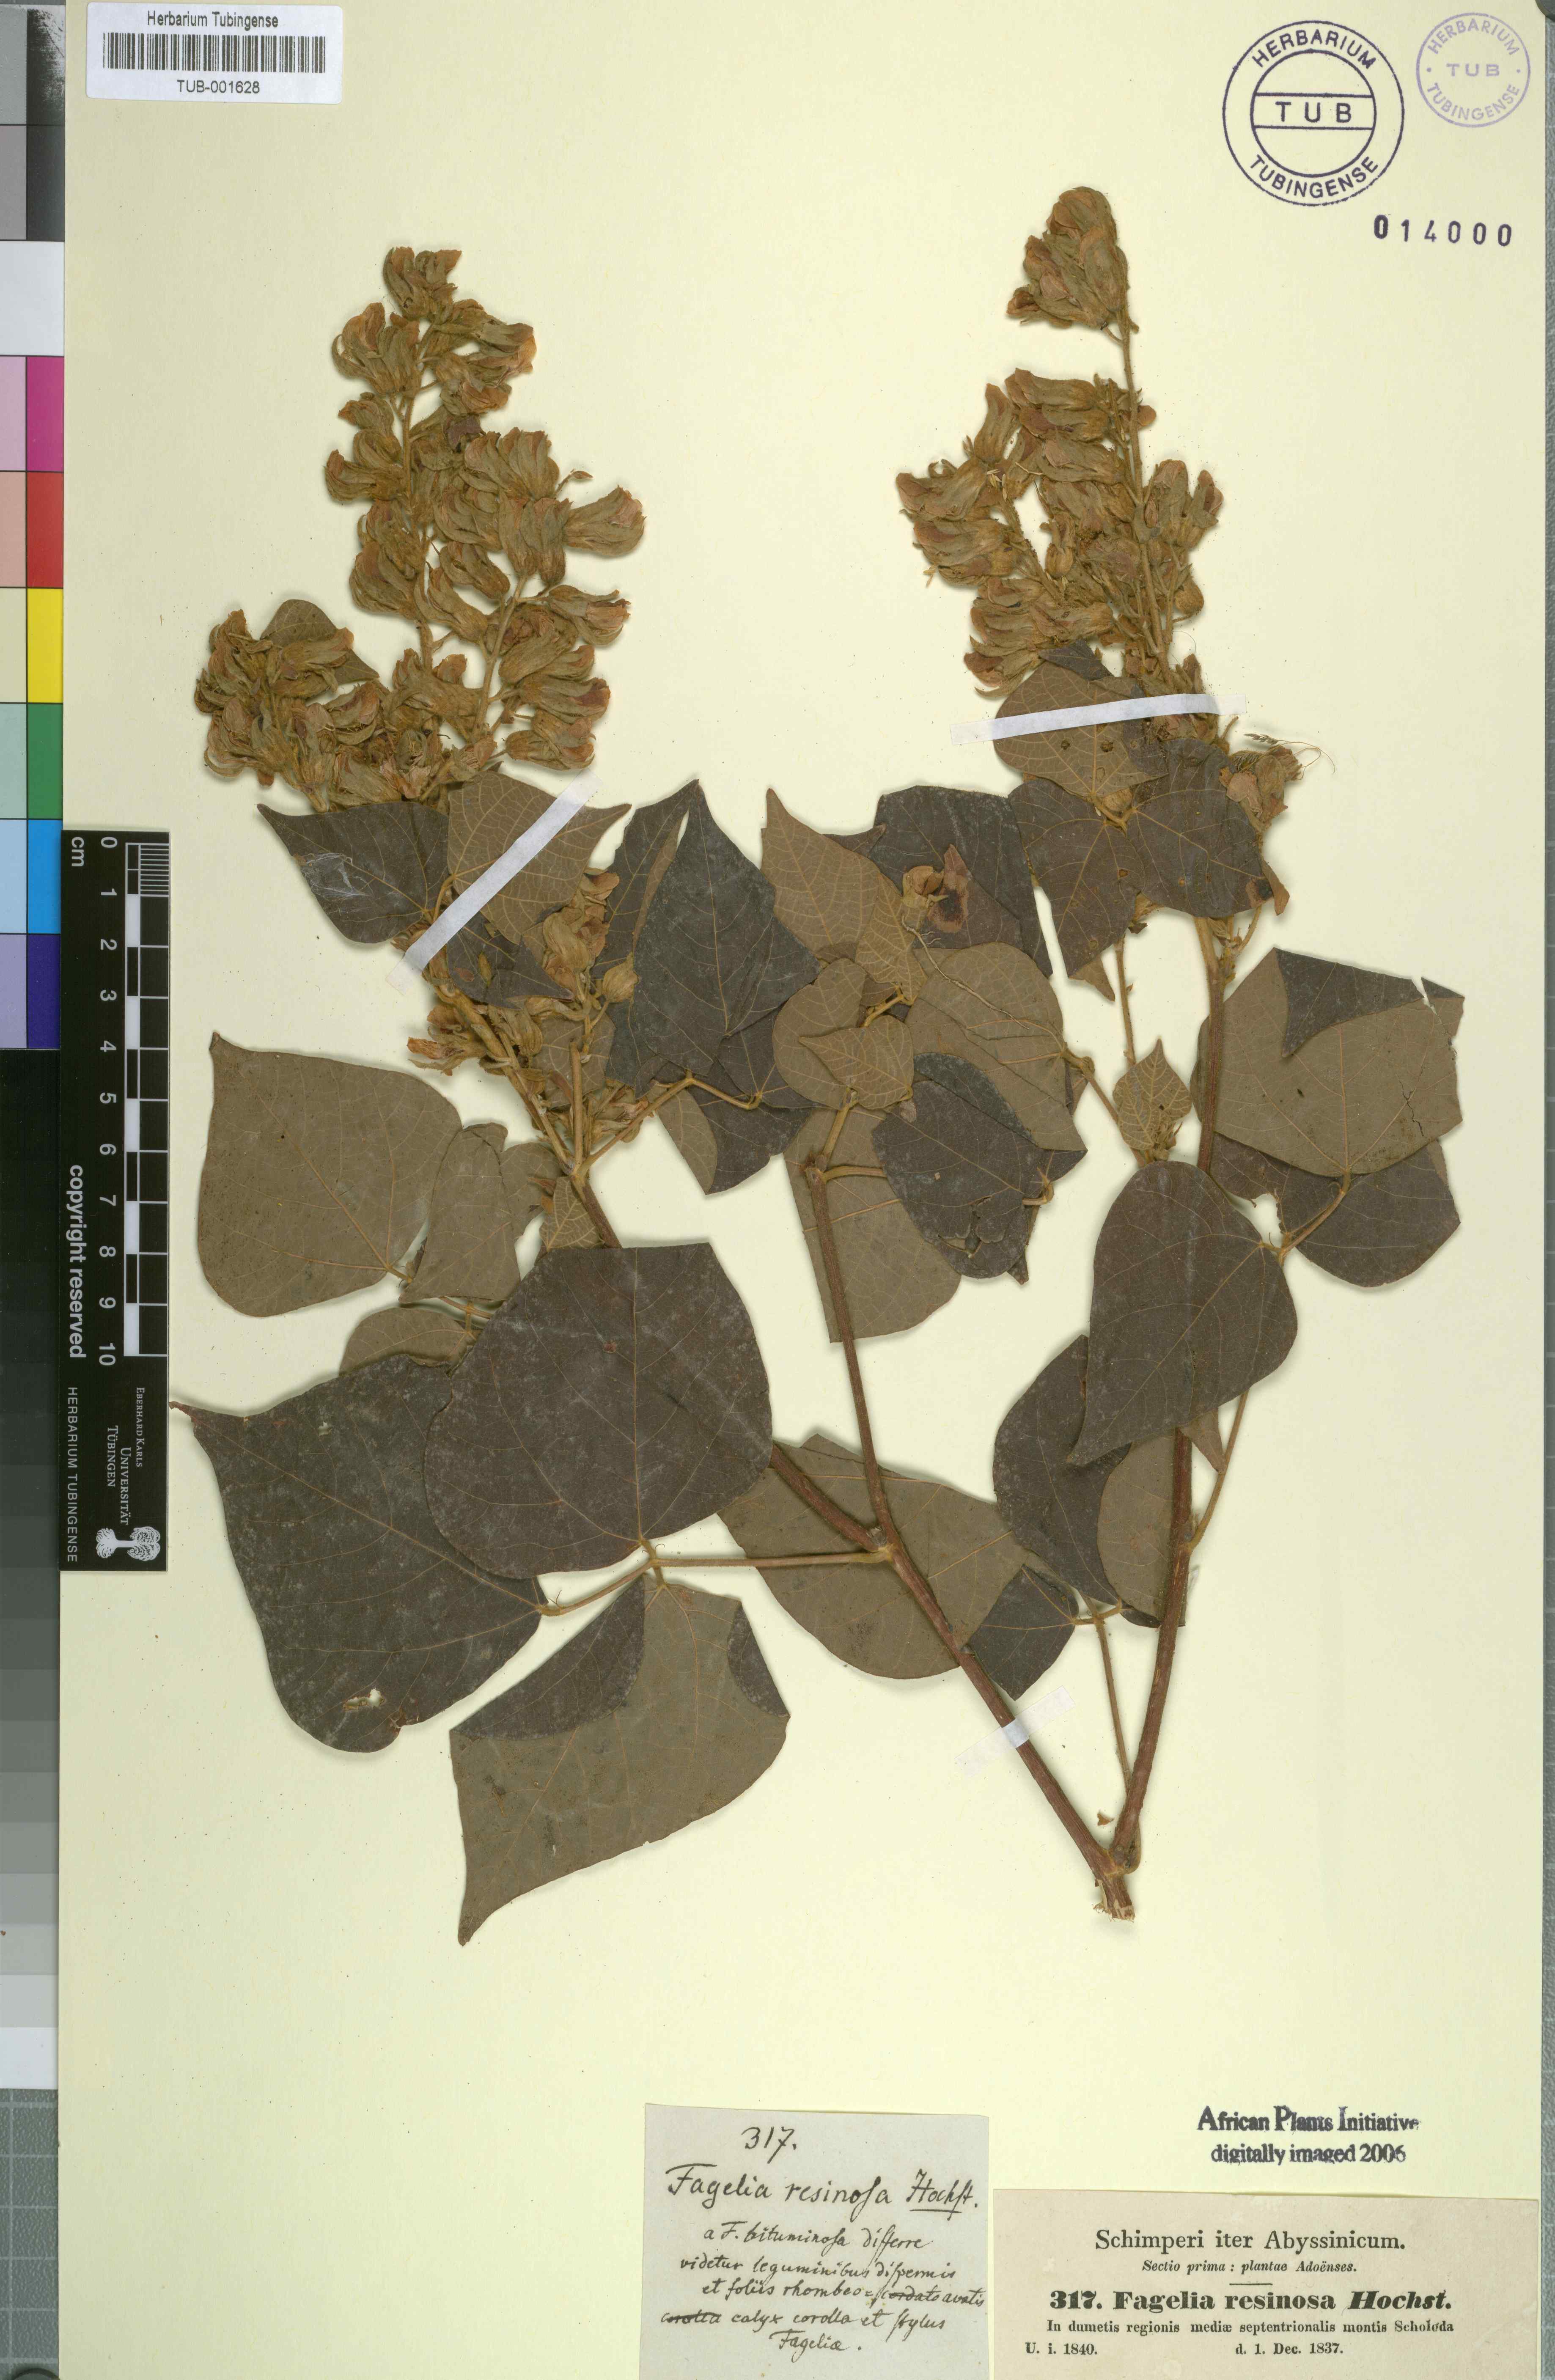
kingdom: Plantae
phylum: Tracheophyta
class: Magnoliopsida
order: Fabales
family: Fabaceae
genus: Rhynchosia
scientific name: Rhynchosia resinosa
